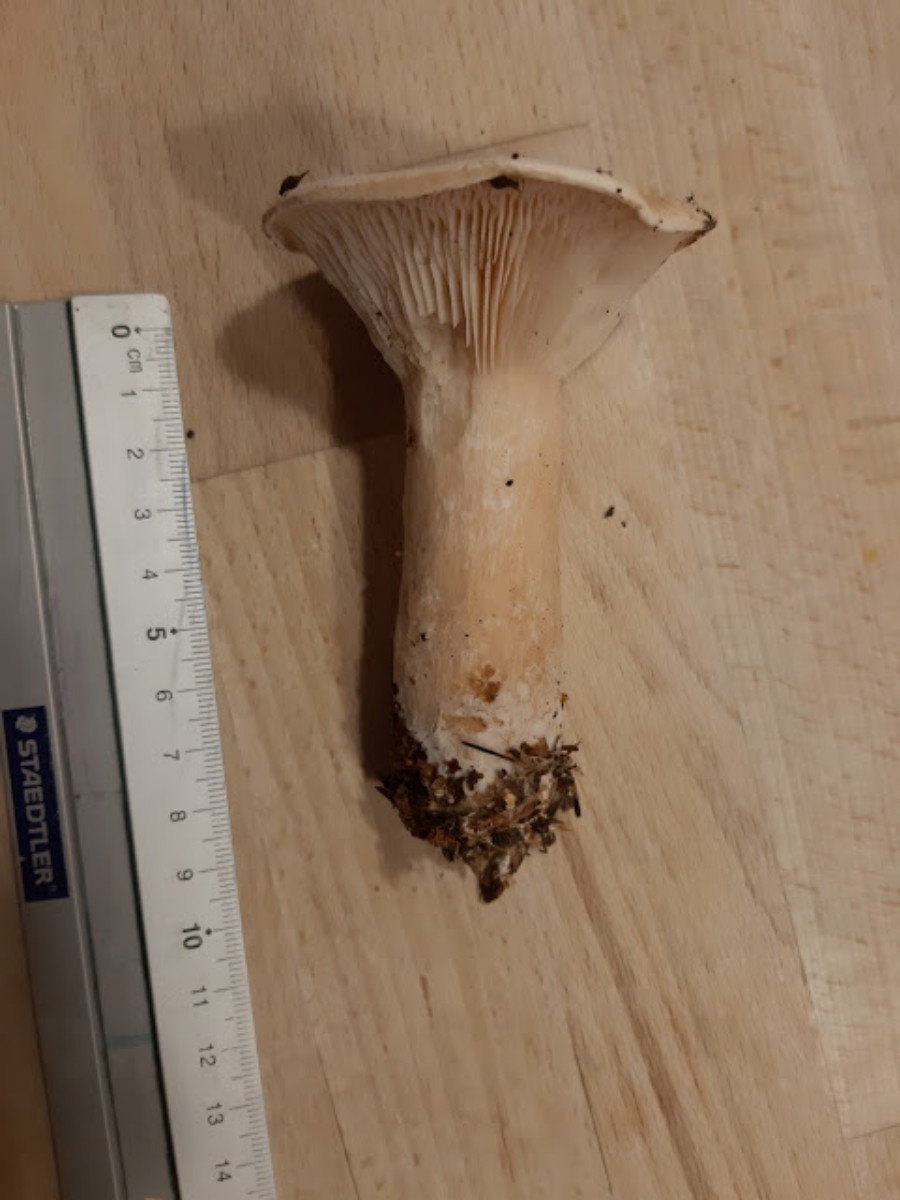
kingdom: Fungi
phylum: Basidiomycota
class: Agaricomycetes
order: Agaricales
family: Tricholomataceae
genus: Infundibulicybe
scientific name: Infundibulicybe geotropa
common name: stor tragthat
